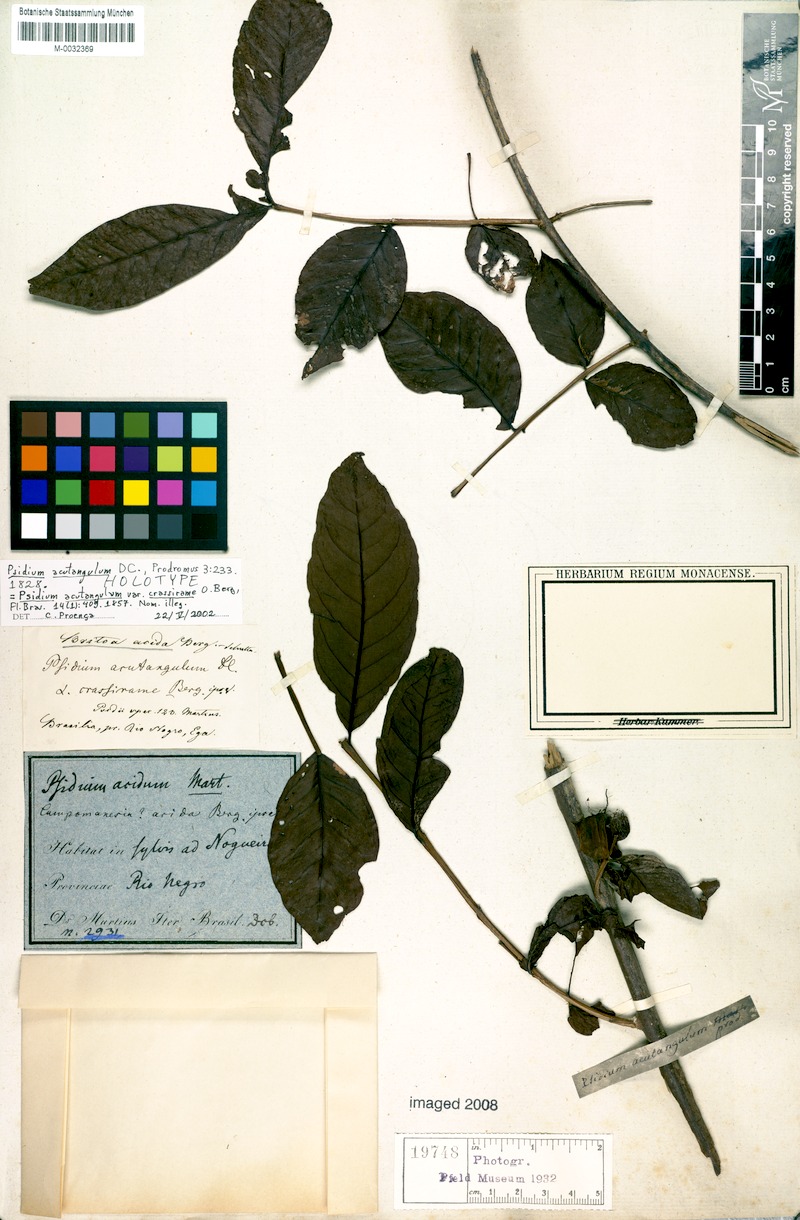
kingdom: Plantae
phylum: Tracheophyta
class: Magnoliopsida
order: Myrtales
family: Myrtaceae
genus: Psidium
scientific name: Psidium acutangulum
